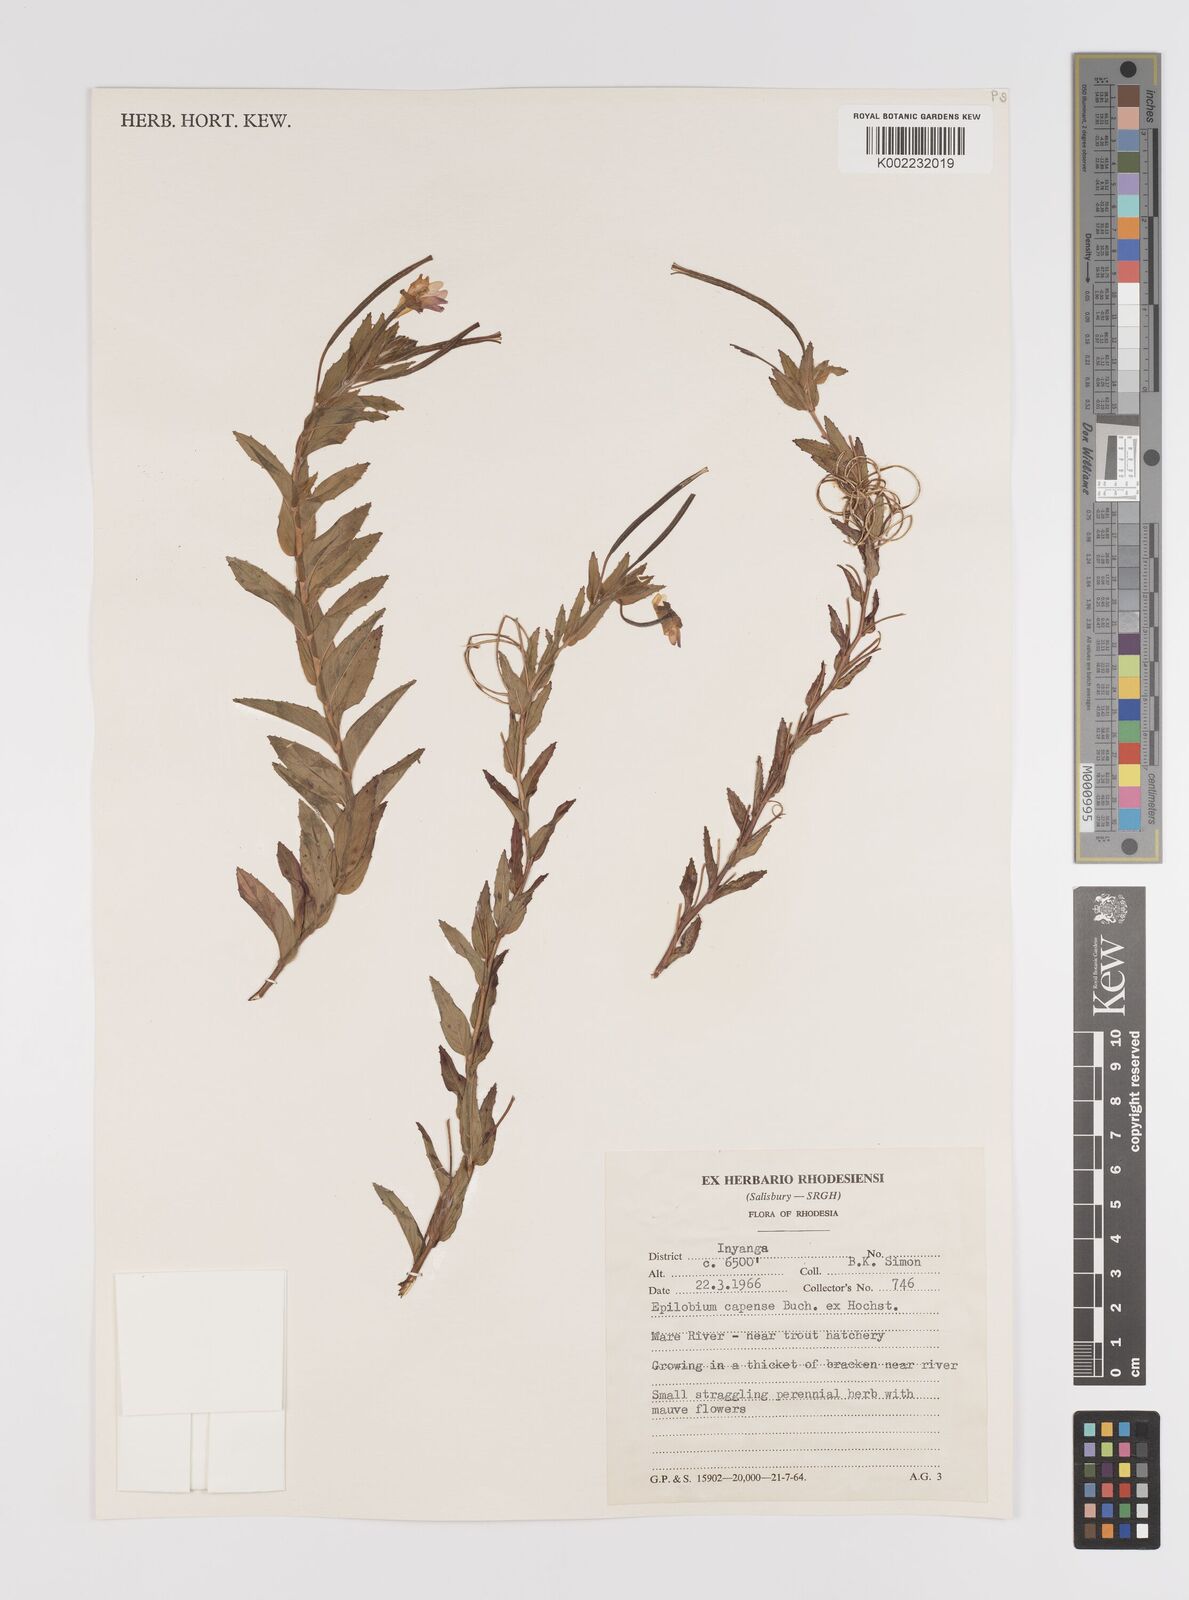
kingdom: Plantae
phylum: Tracheophyta
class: Magnoliopsida
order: Myrtales
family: Onagraceae
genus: Epilobium
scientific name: Epilobium capense
